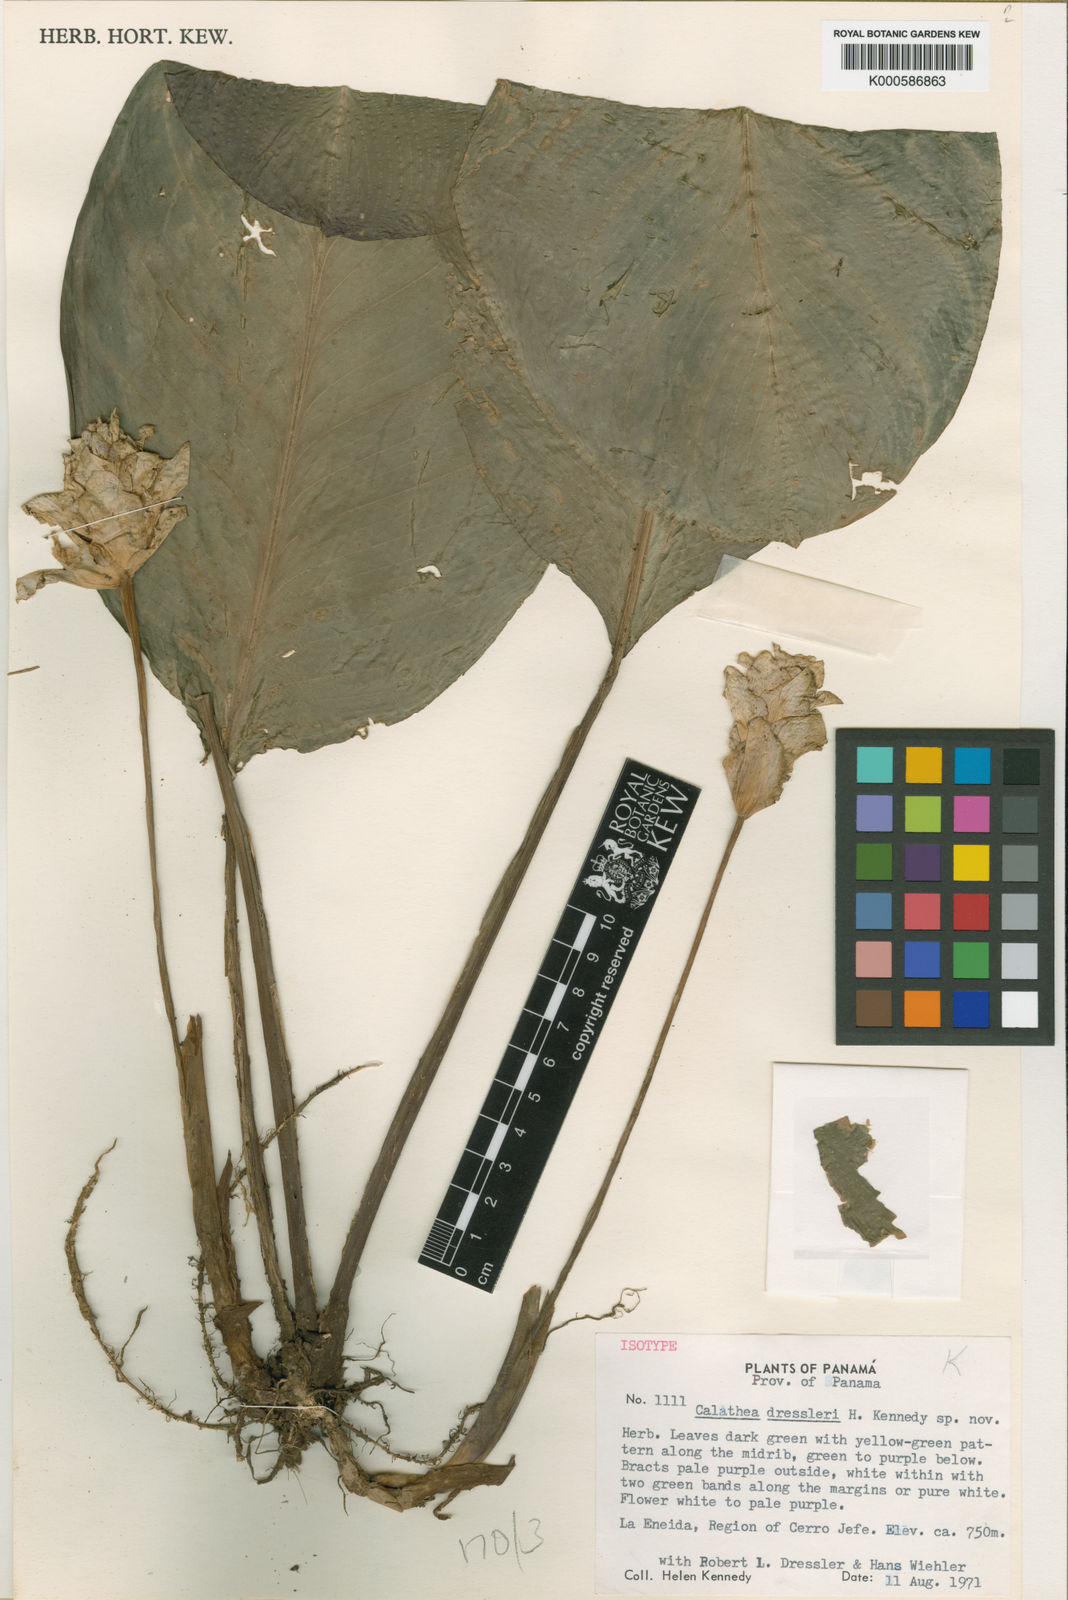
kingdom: Plantae
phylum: Tracheophyta
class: Liliopsida
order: Zingiberales
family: Marantaceae
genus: Goeppertia
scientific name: Goeppertia dressleri
